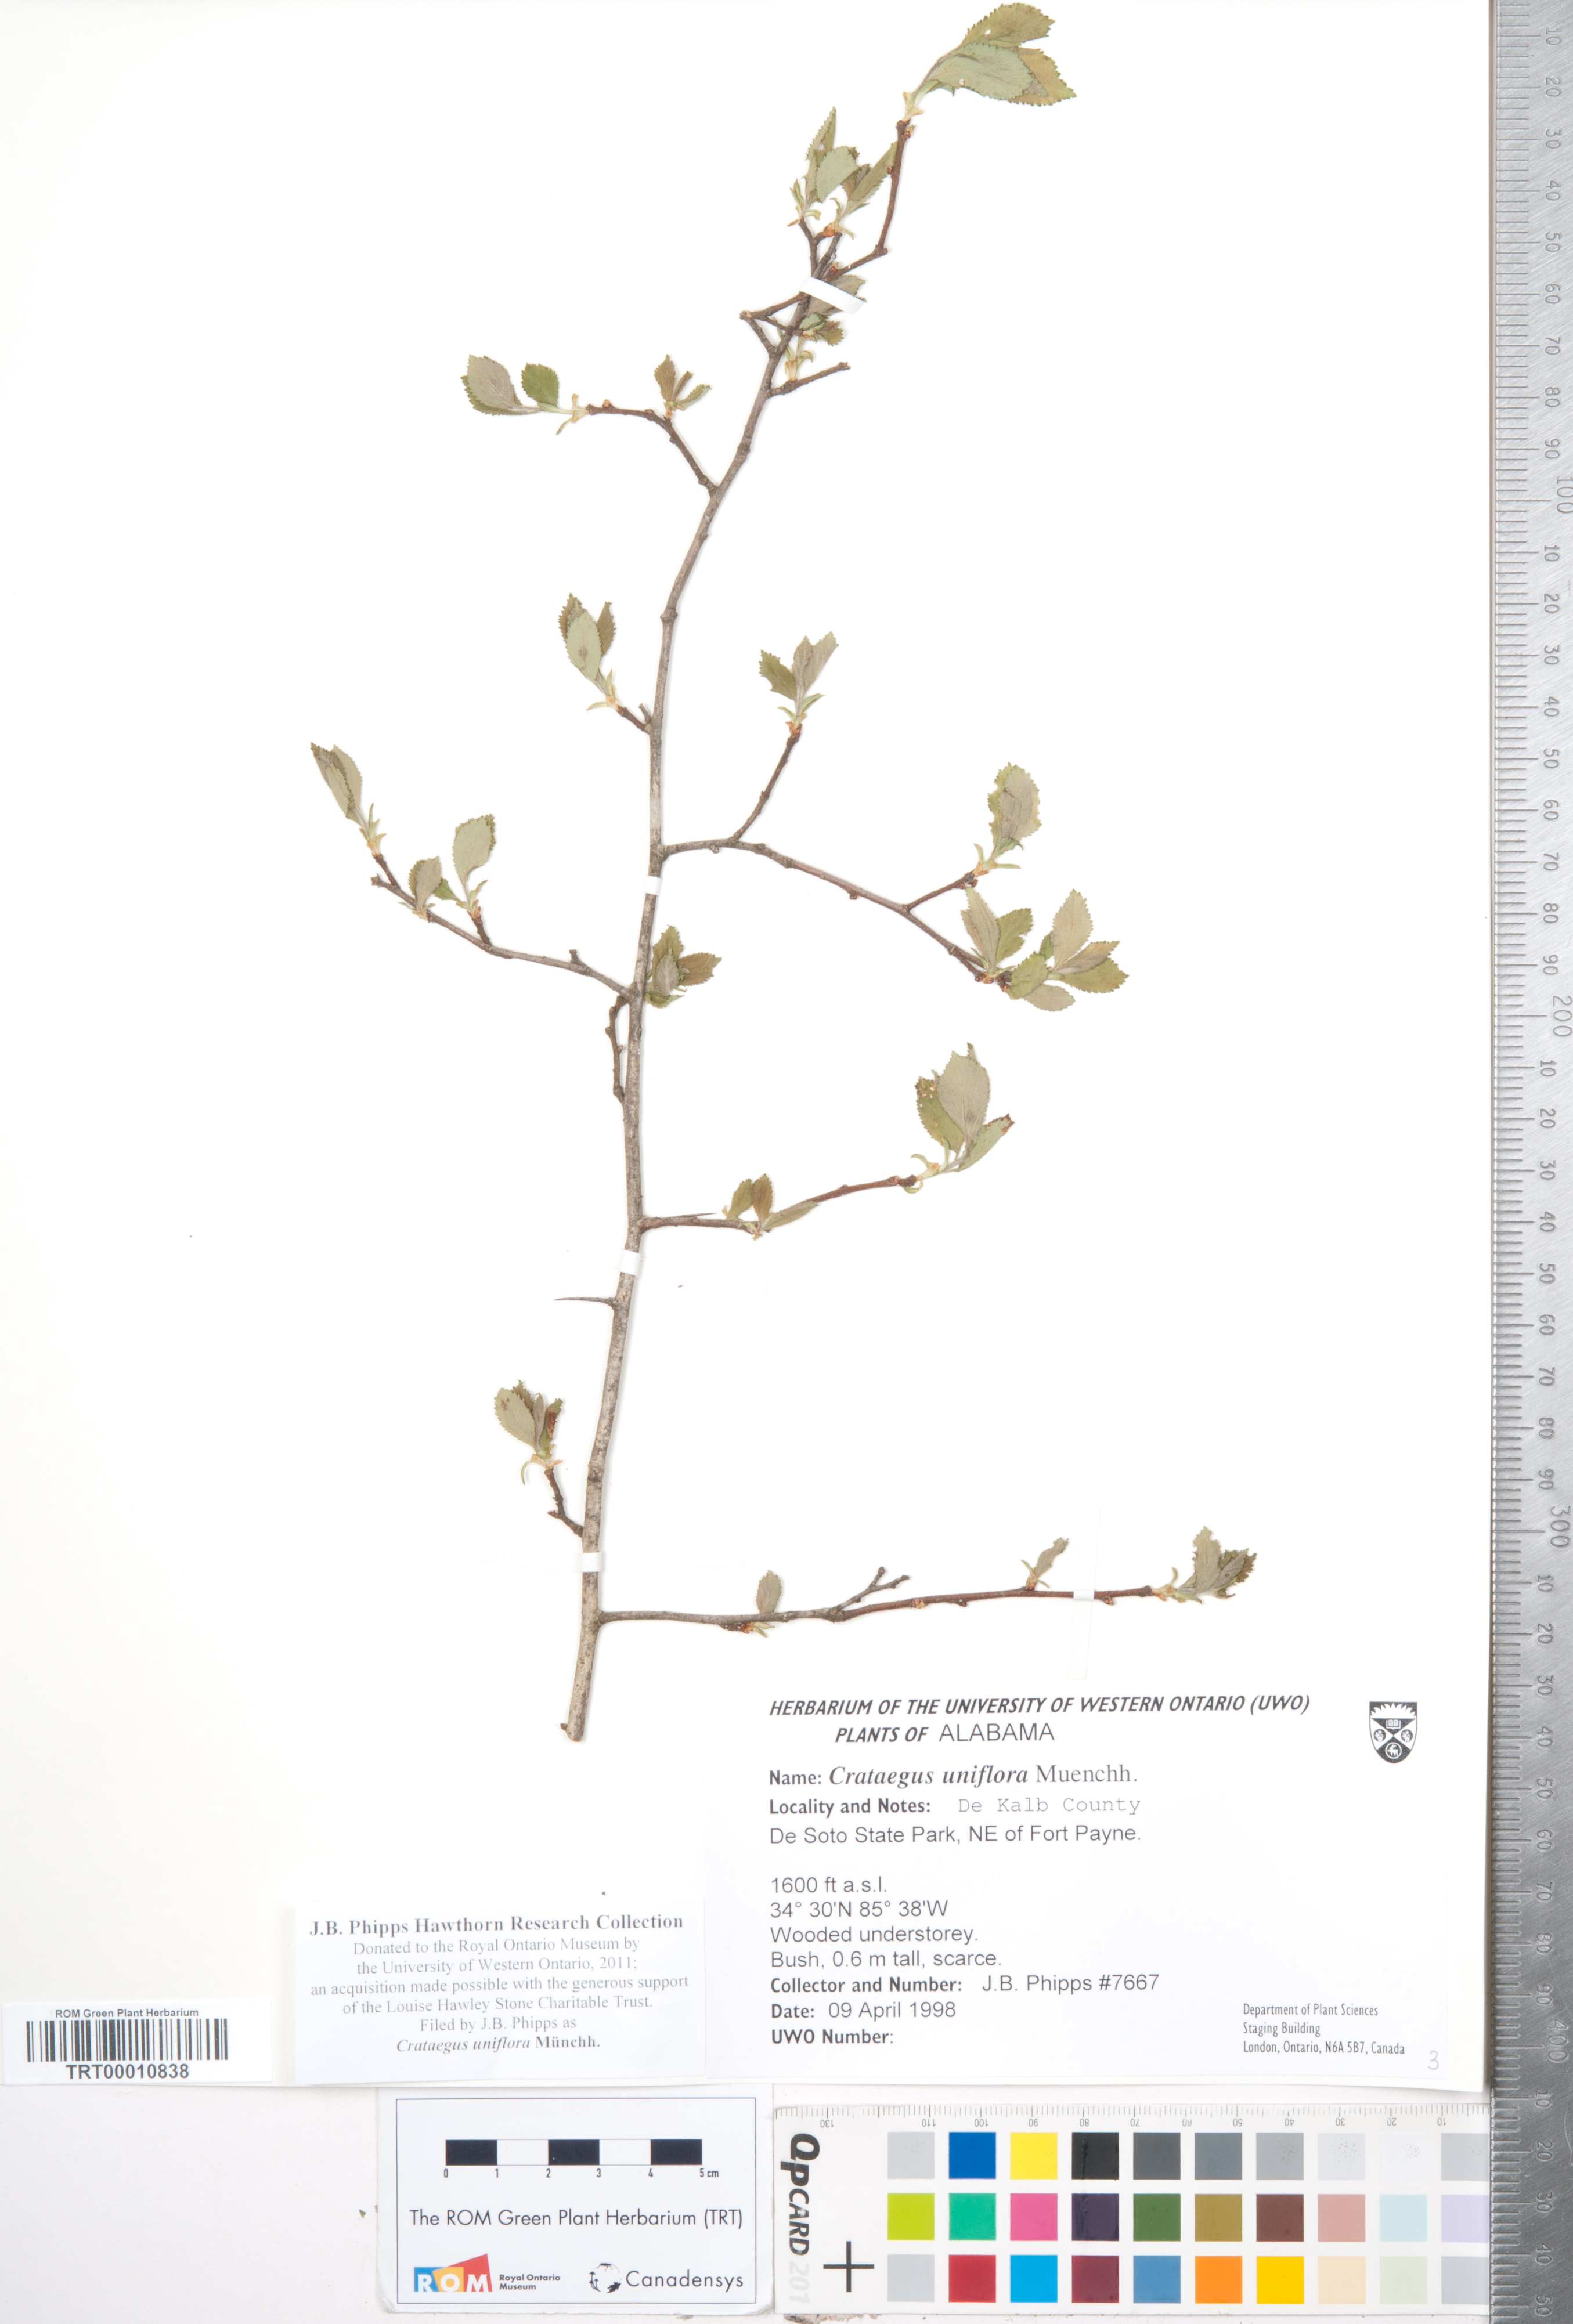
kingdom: Plantae
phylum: Tracheophyta
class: Magnoliopsida
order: Rosales
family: Rosaceae
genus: Crataegus
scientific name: Crataegus uniflora
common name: One-flower hawthorn
